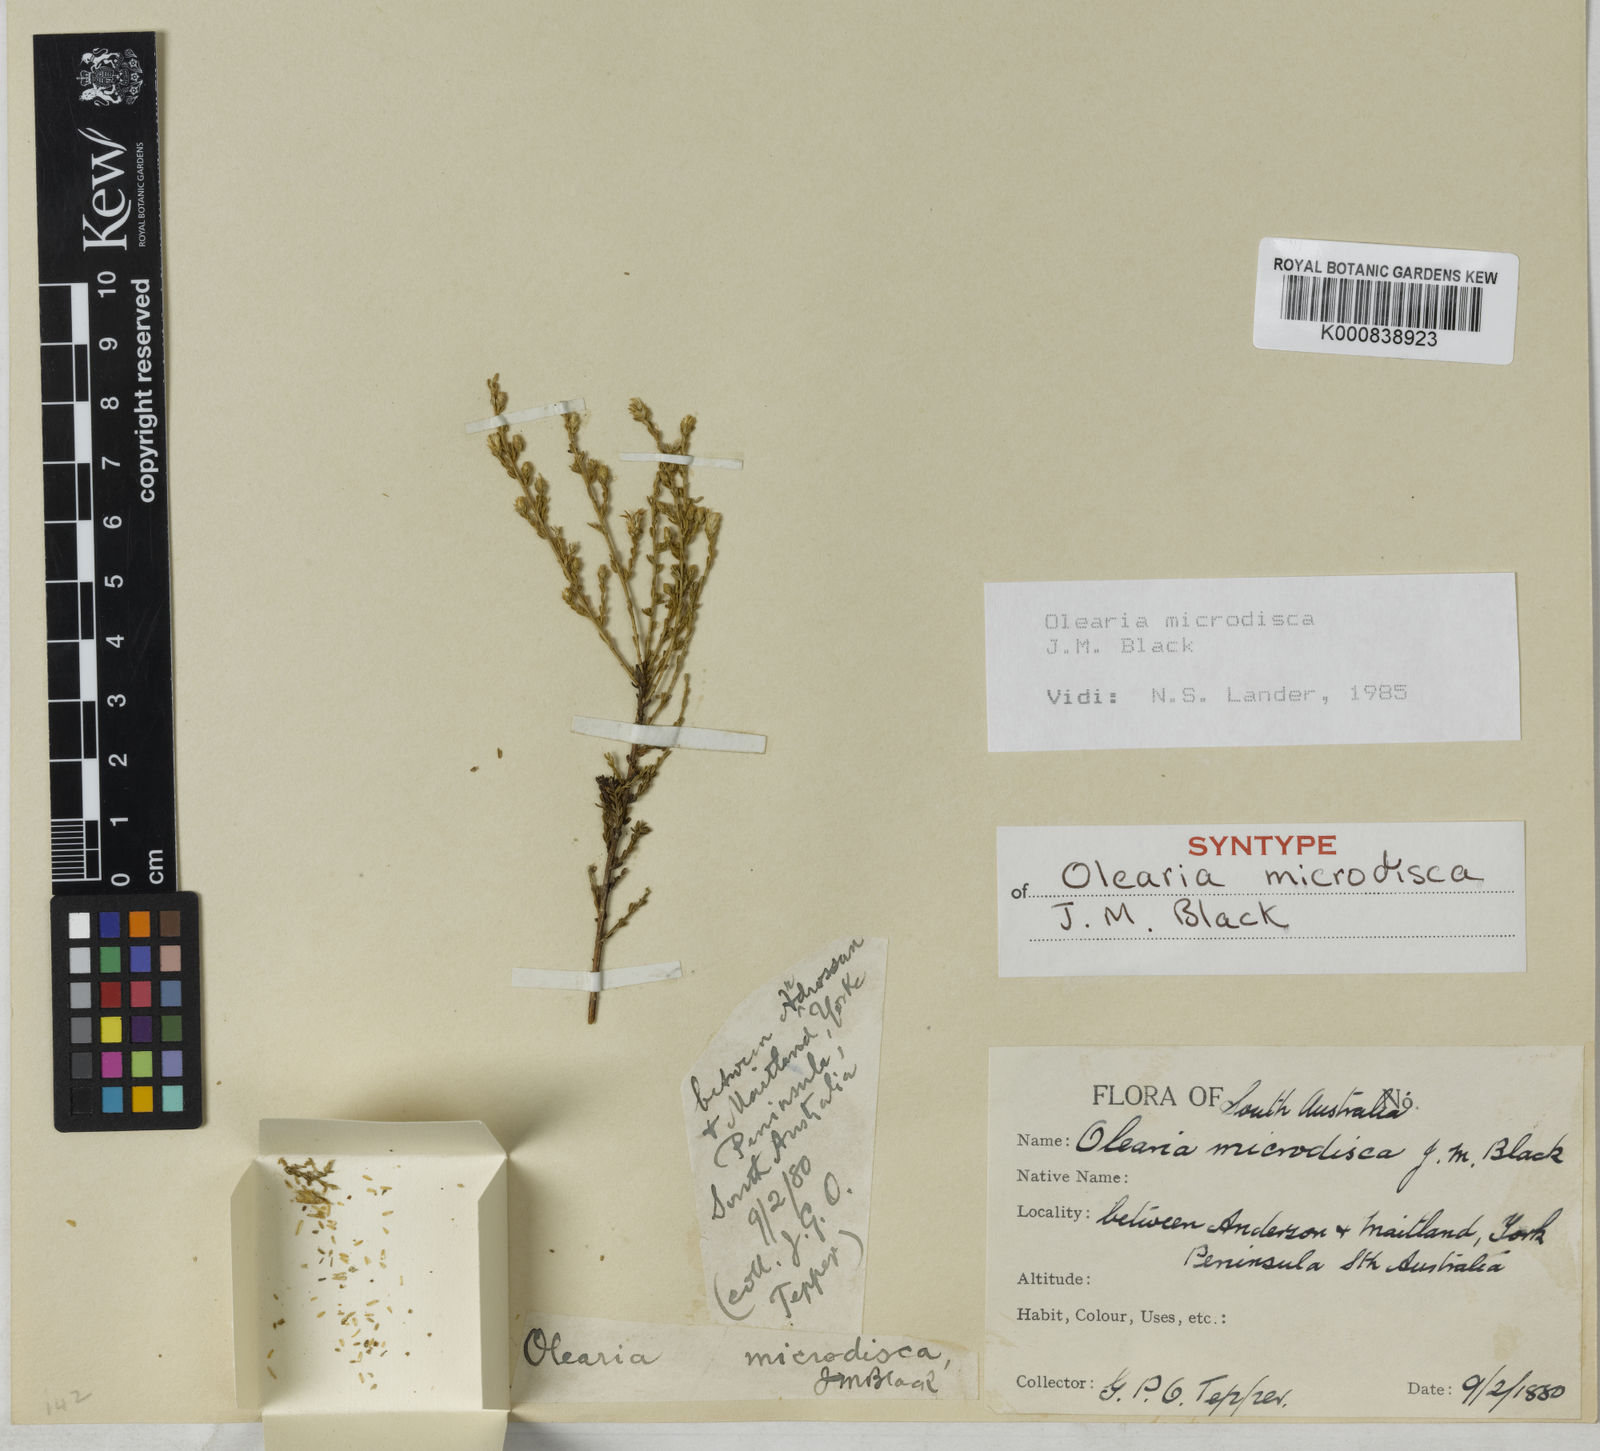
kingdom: Plantae
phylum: Tracheophyta
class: Magnoliopsida
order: Asterales
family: Asteraceae
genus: Olearia
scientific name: Olearia microdisca
